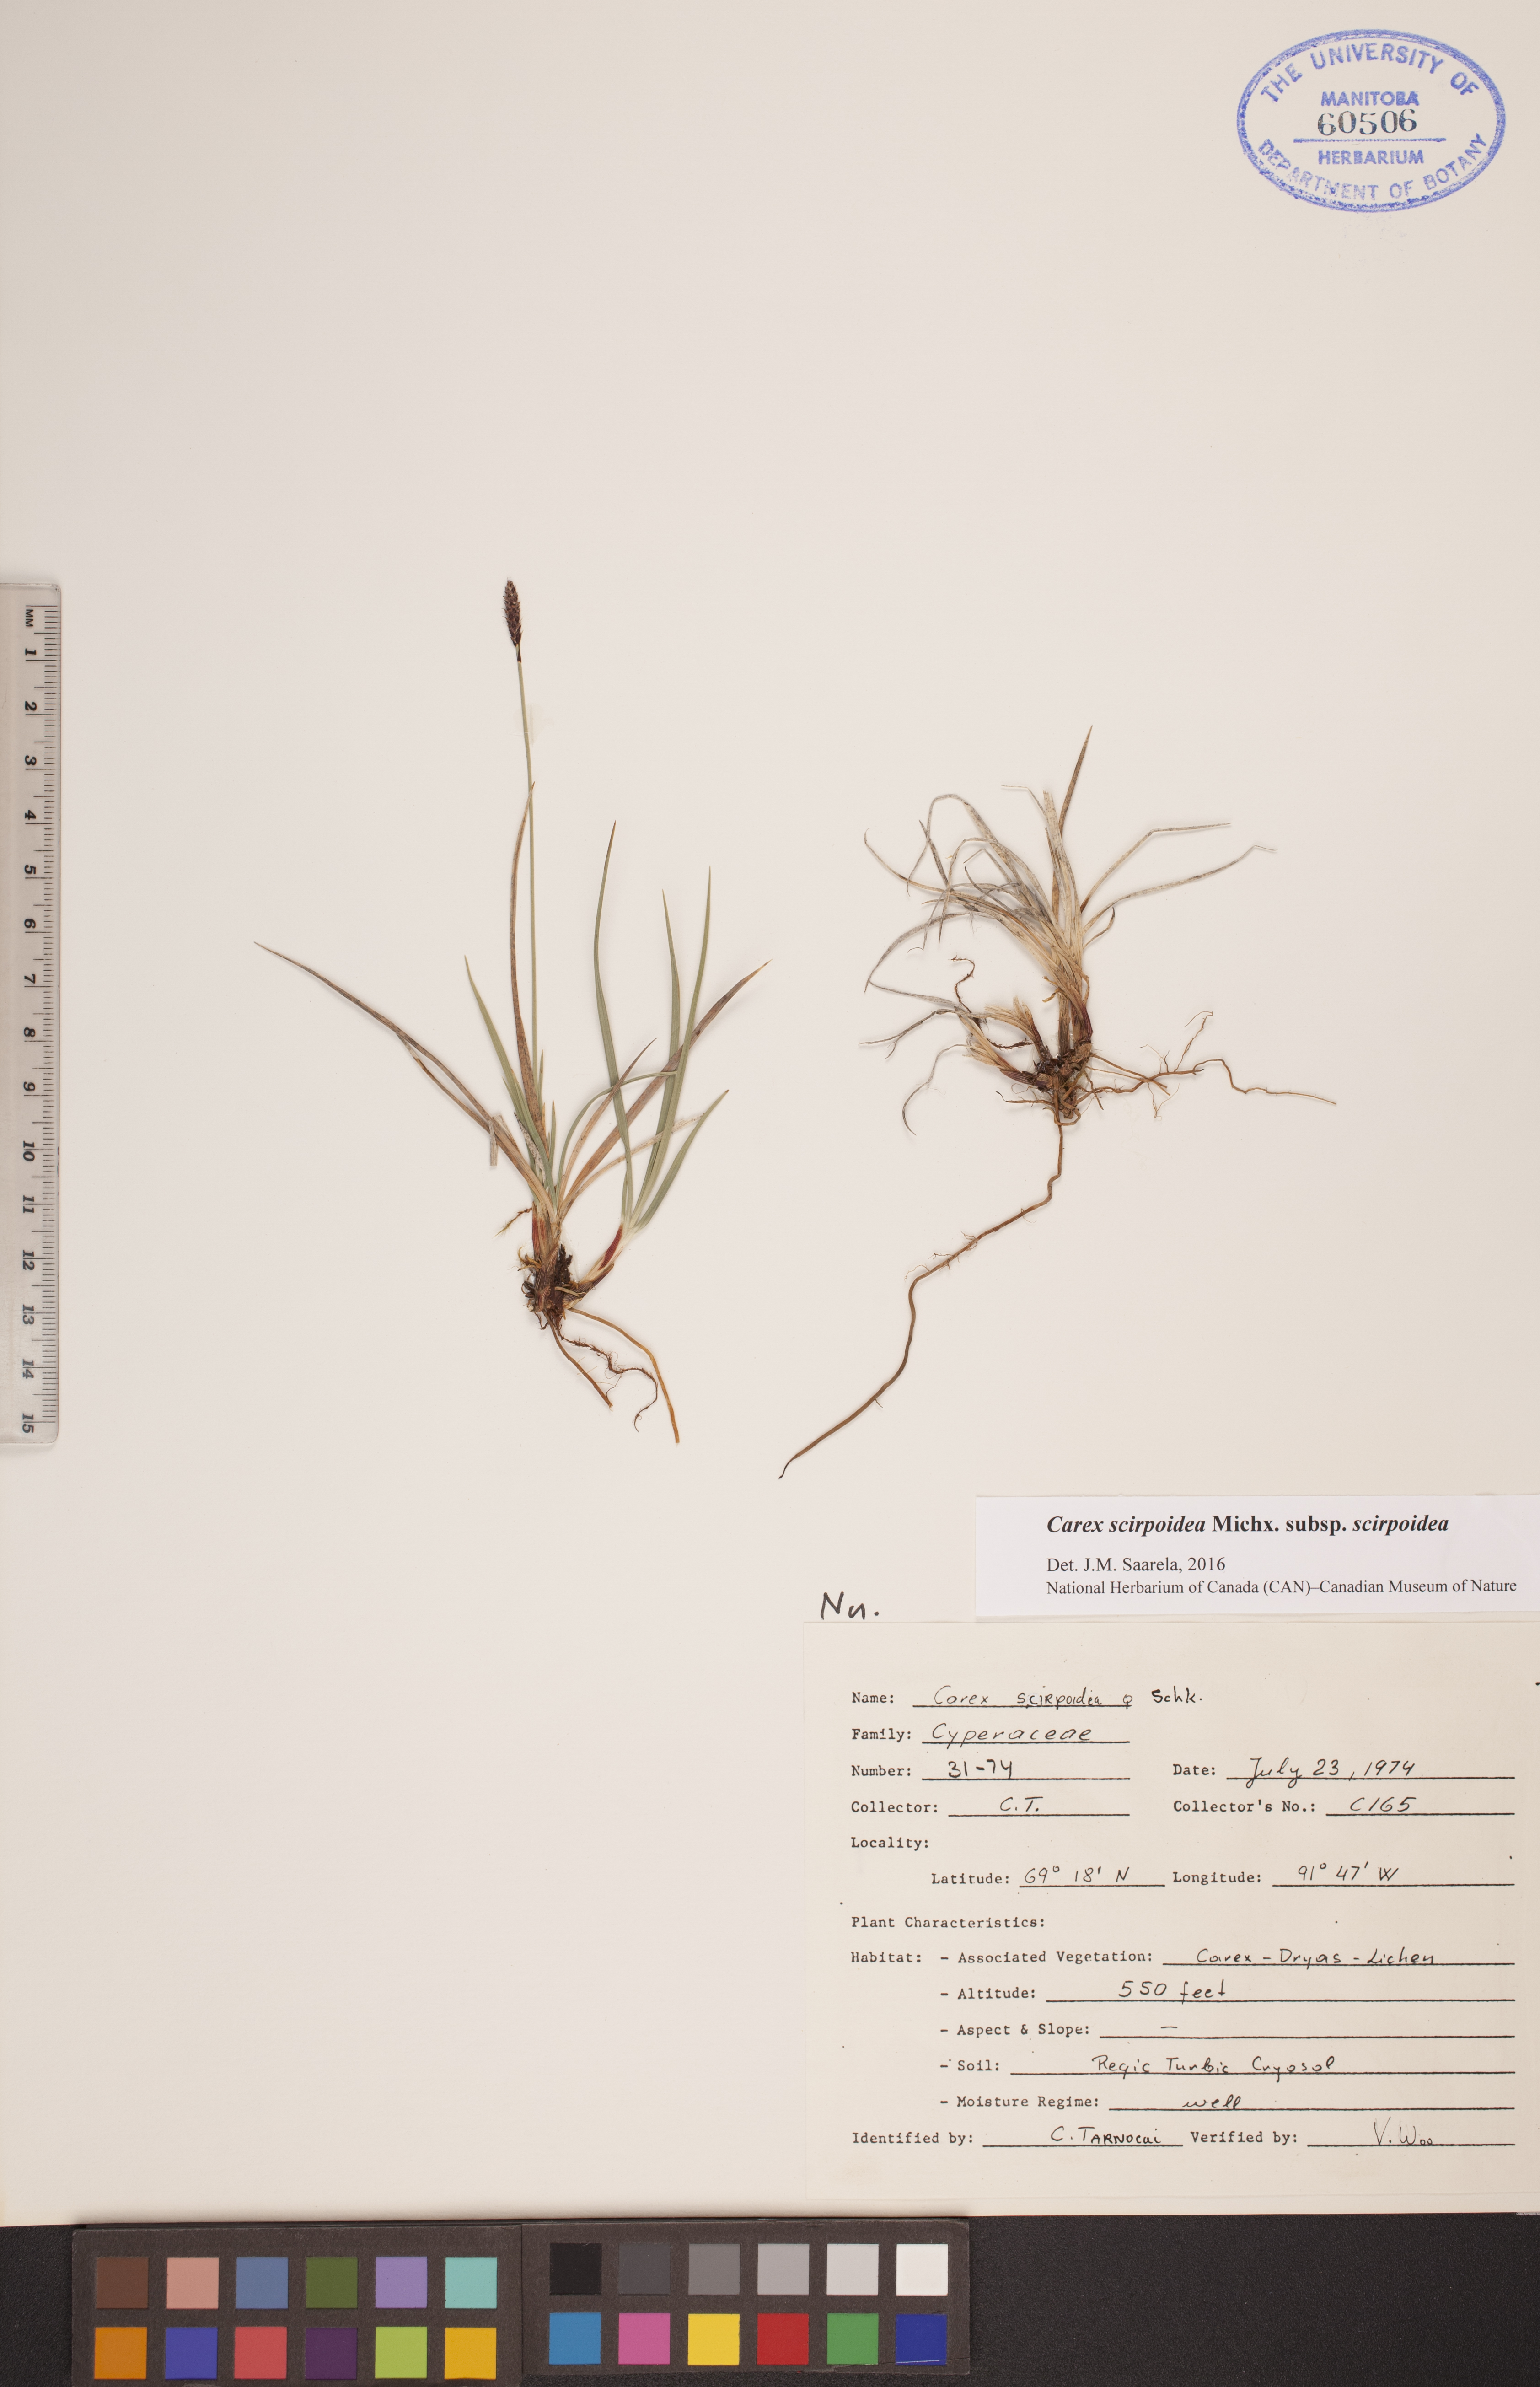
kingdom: Plantae
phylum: Tracheophyta
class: Liliopsida
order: Poales
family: Cyperaceae
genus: Carex
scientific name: Carex scirpoidea
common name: Canada single-spike sedge
